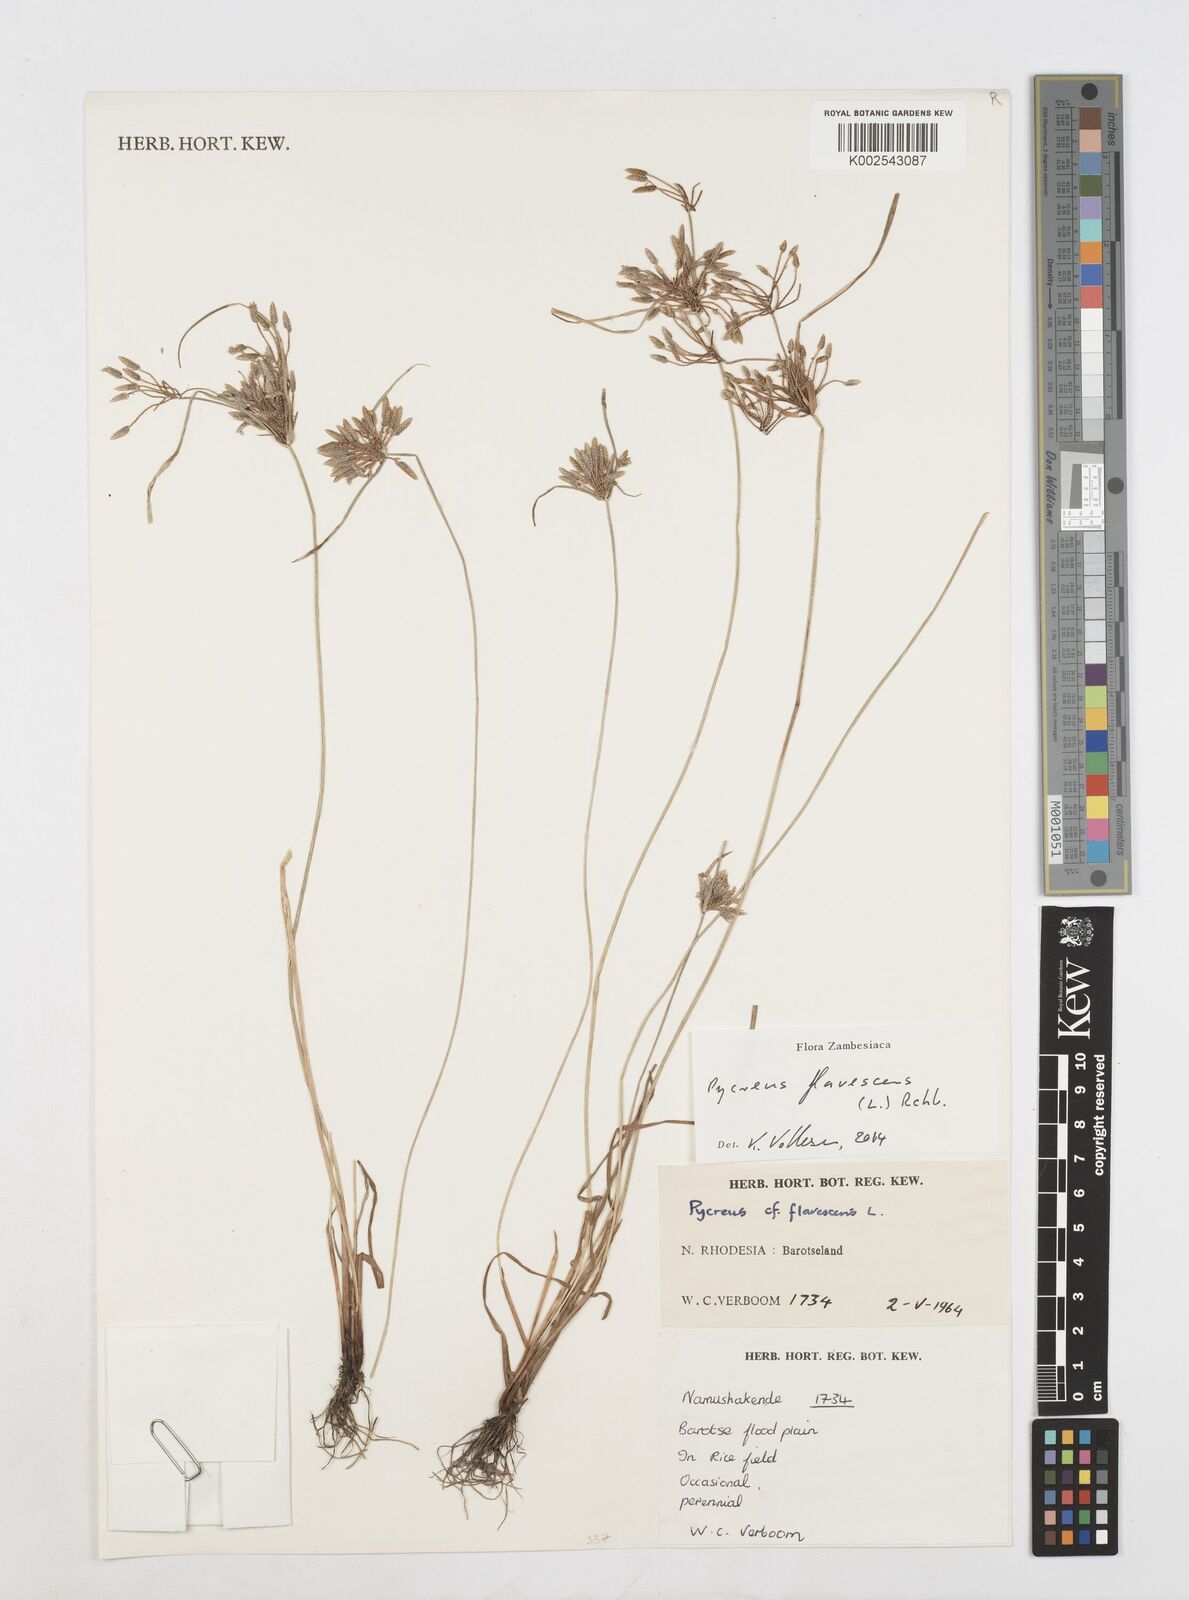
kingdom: Plantae
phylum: Tracheophyta
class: Liliopsida
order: Poales
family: Cyperaceae
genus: Cyperus
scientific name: Cyperus flavescens
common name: Yellow galingale
